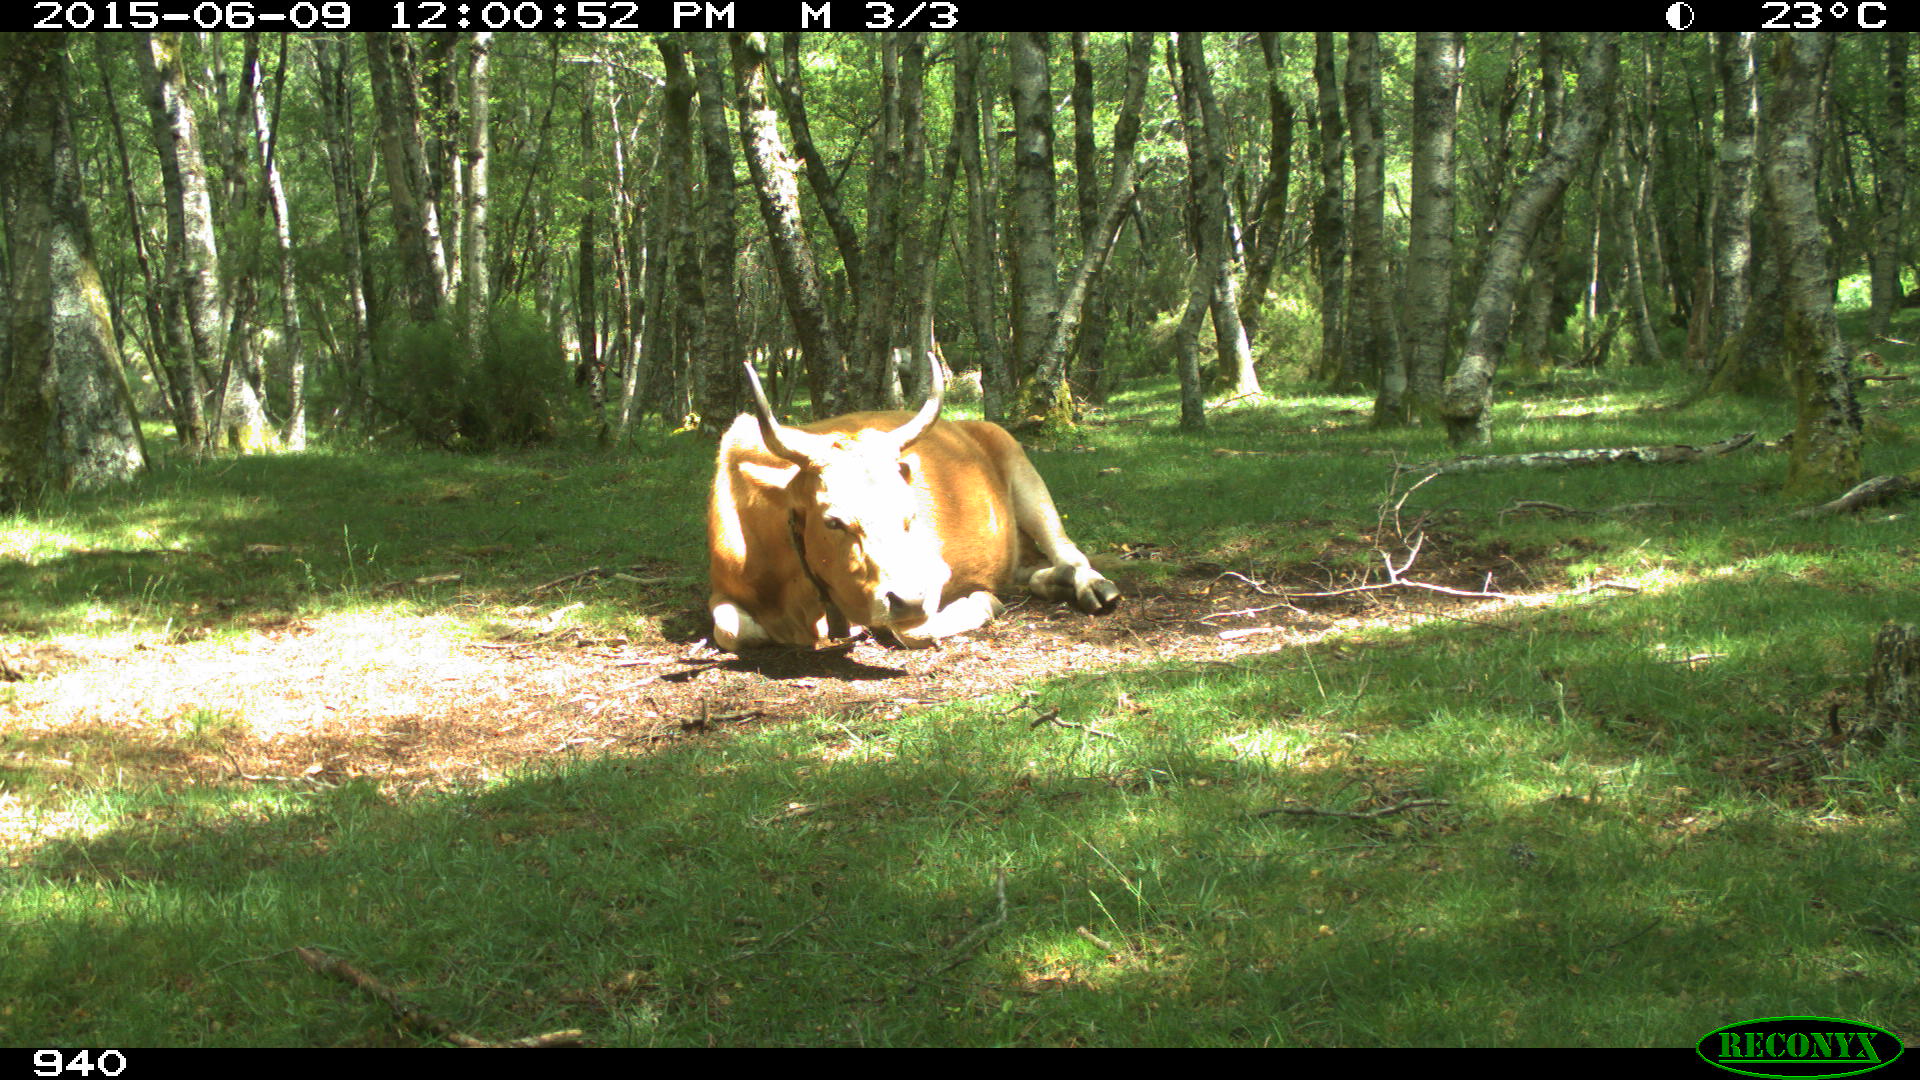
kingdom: Animalia
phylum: Chordata
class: Mammalia
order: Artiodactyla
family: Bovidae
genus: Bos
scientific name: Bos taurus
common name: Domesticated cattle
